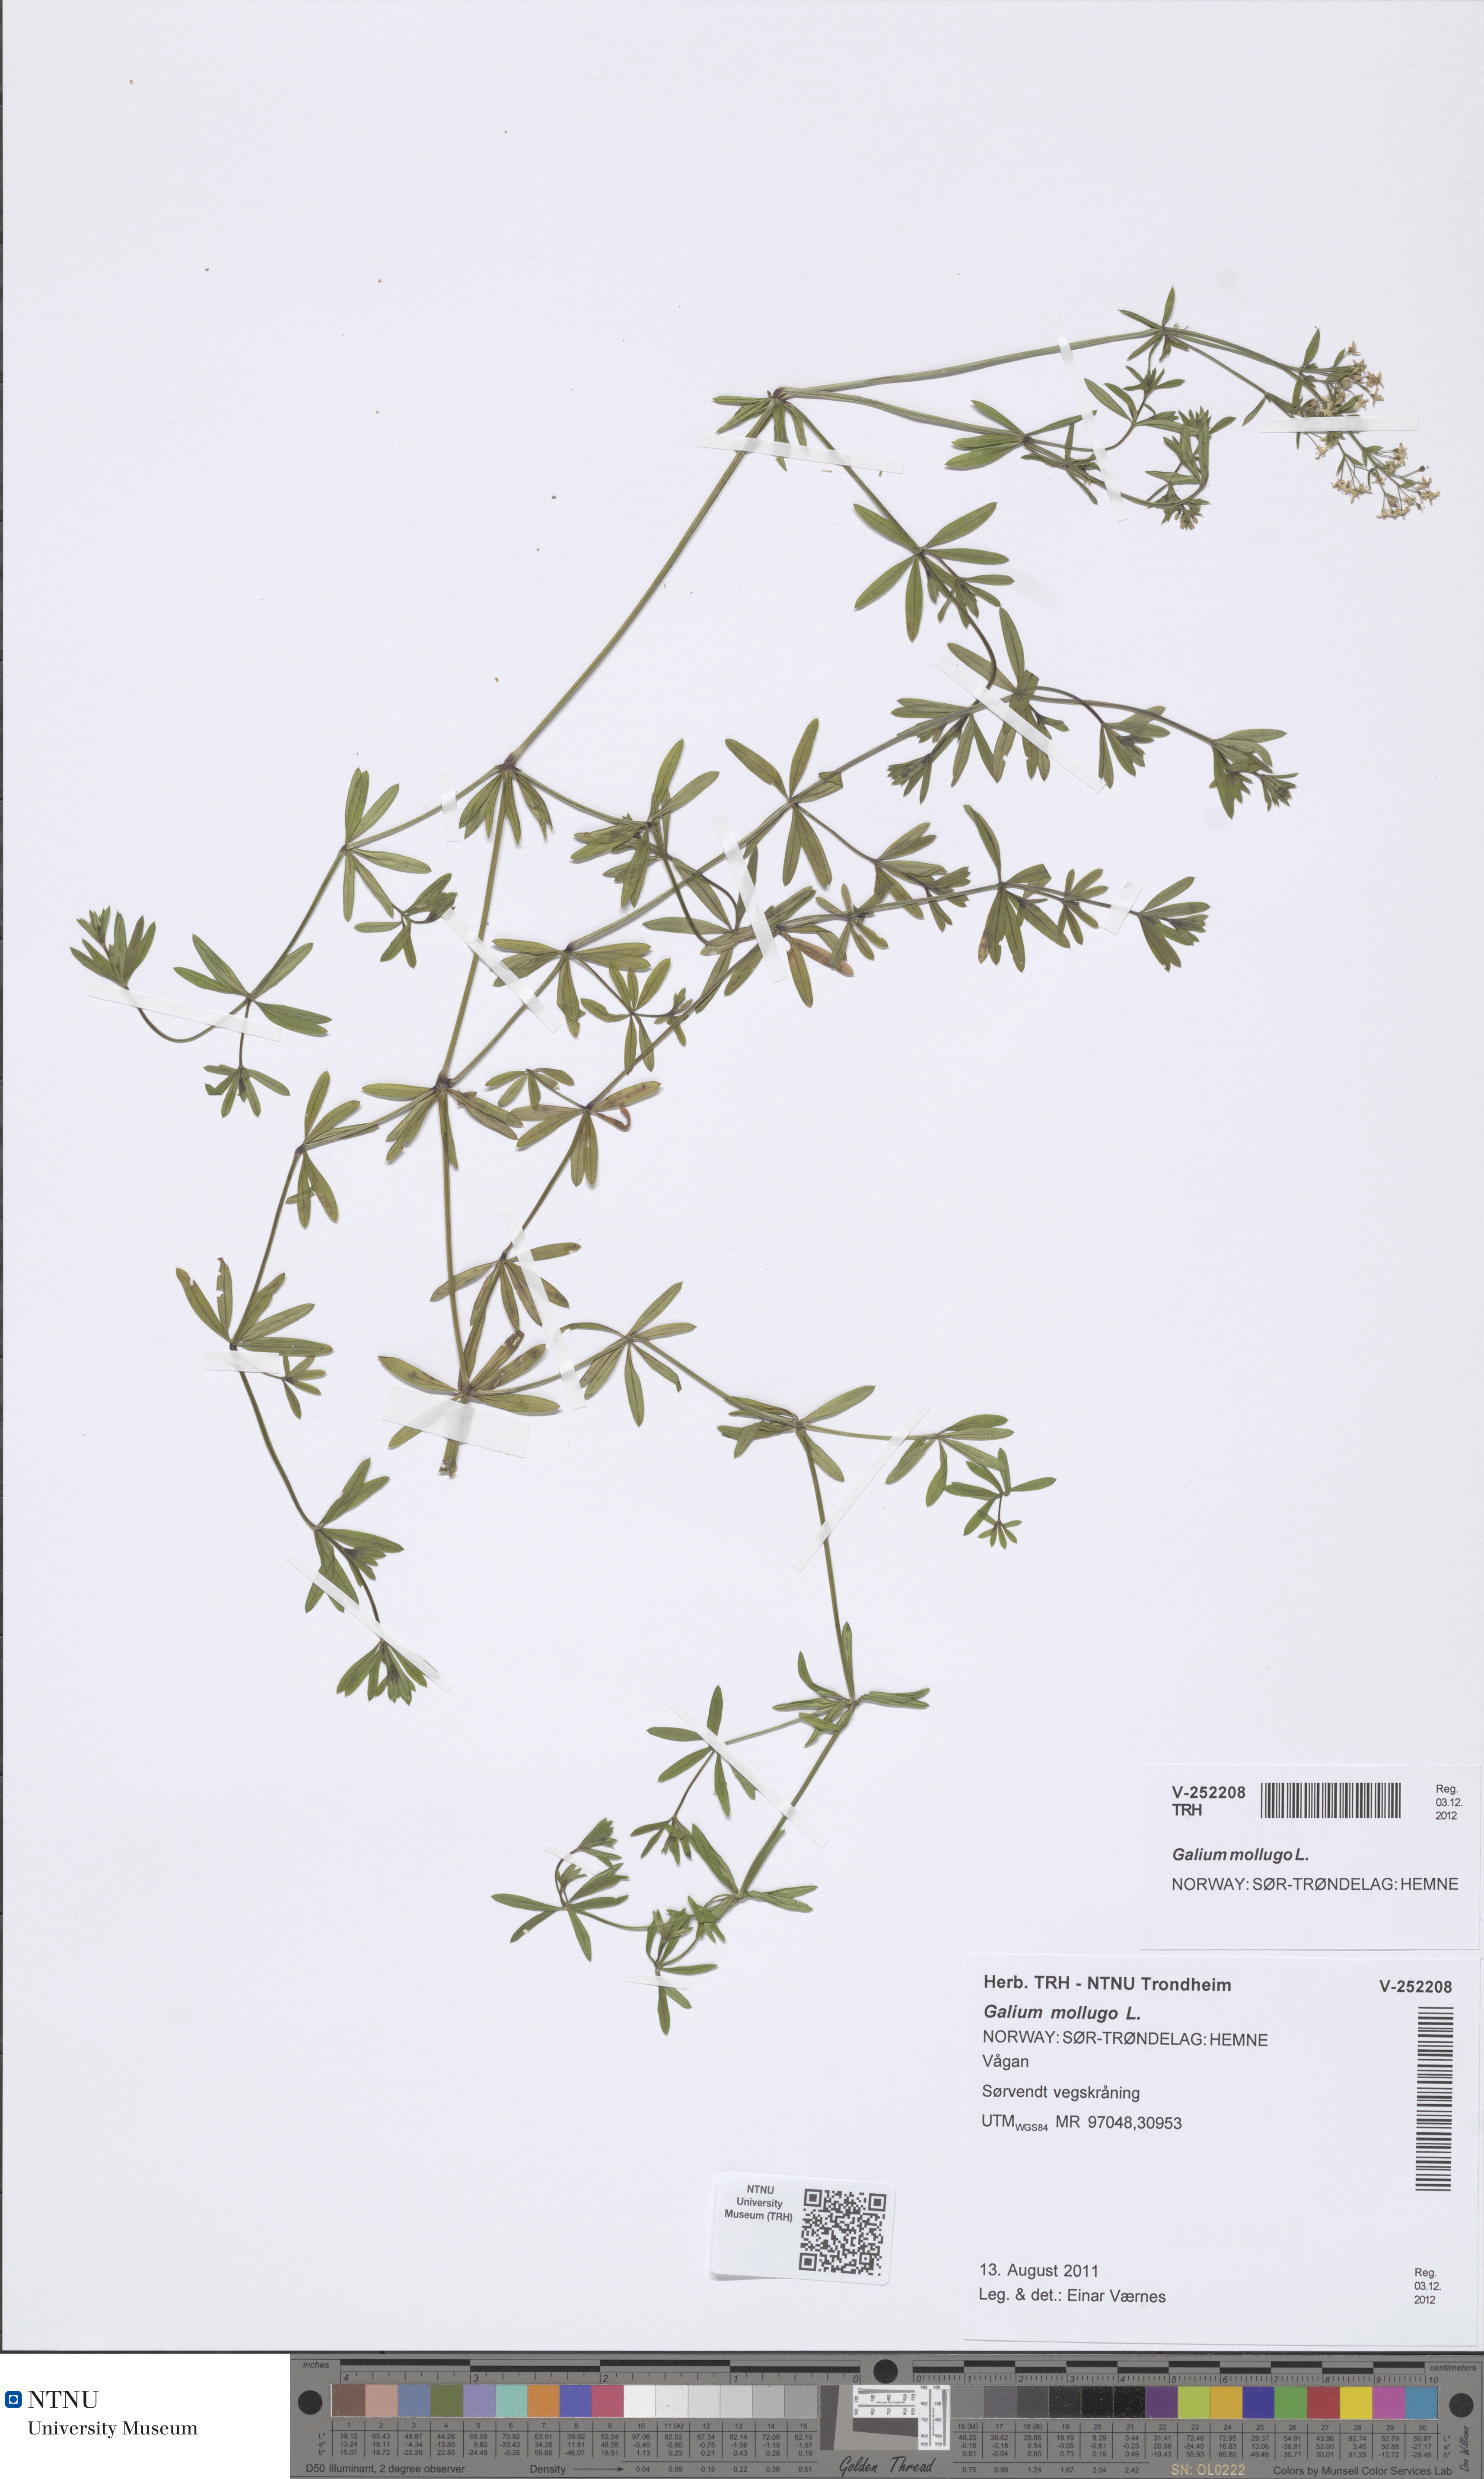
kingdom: Plantae
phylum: Tracheophyta
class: Magnoliopsida
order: Gentianales
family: Rubiaceae
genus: Galium
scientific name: Galium mollugo
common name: Hedge bedstraw
